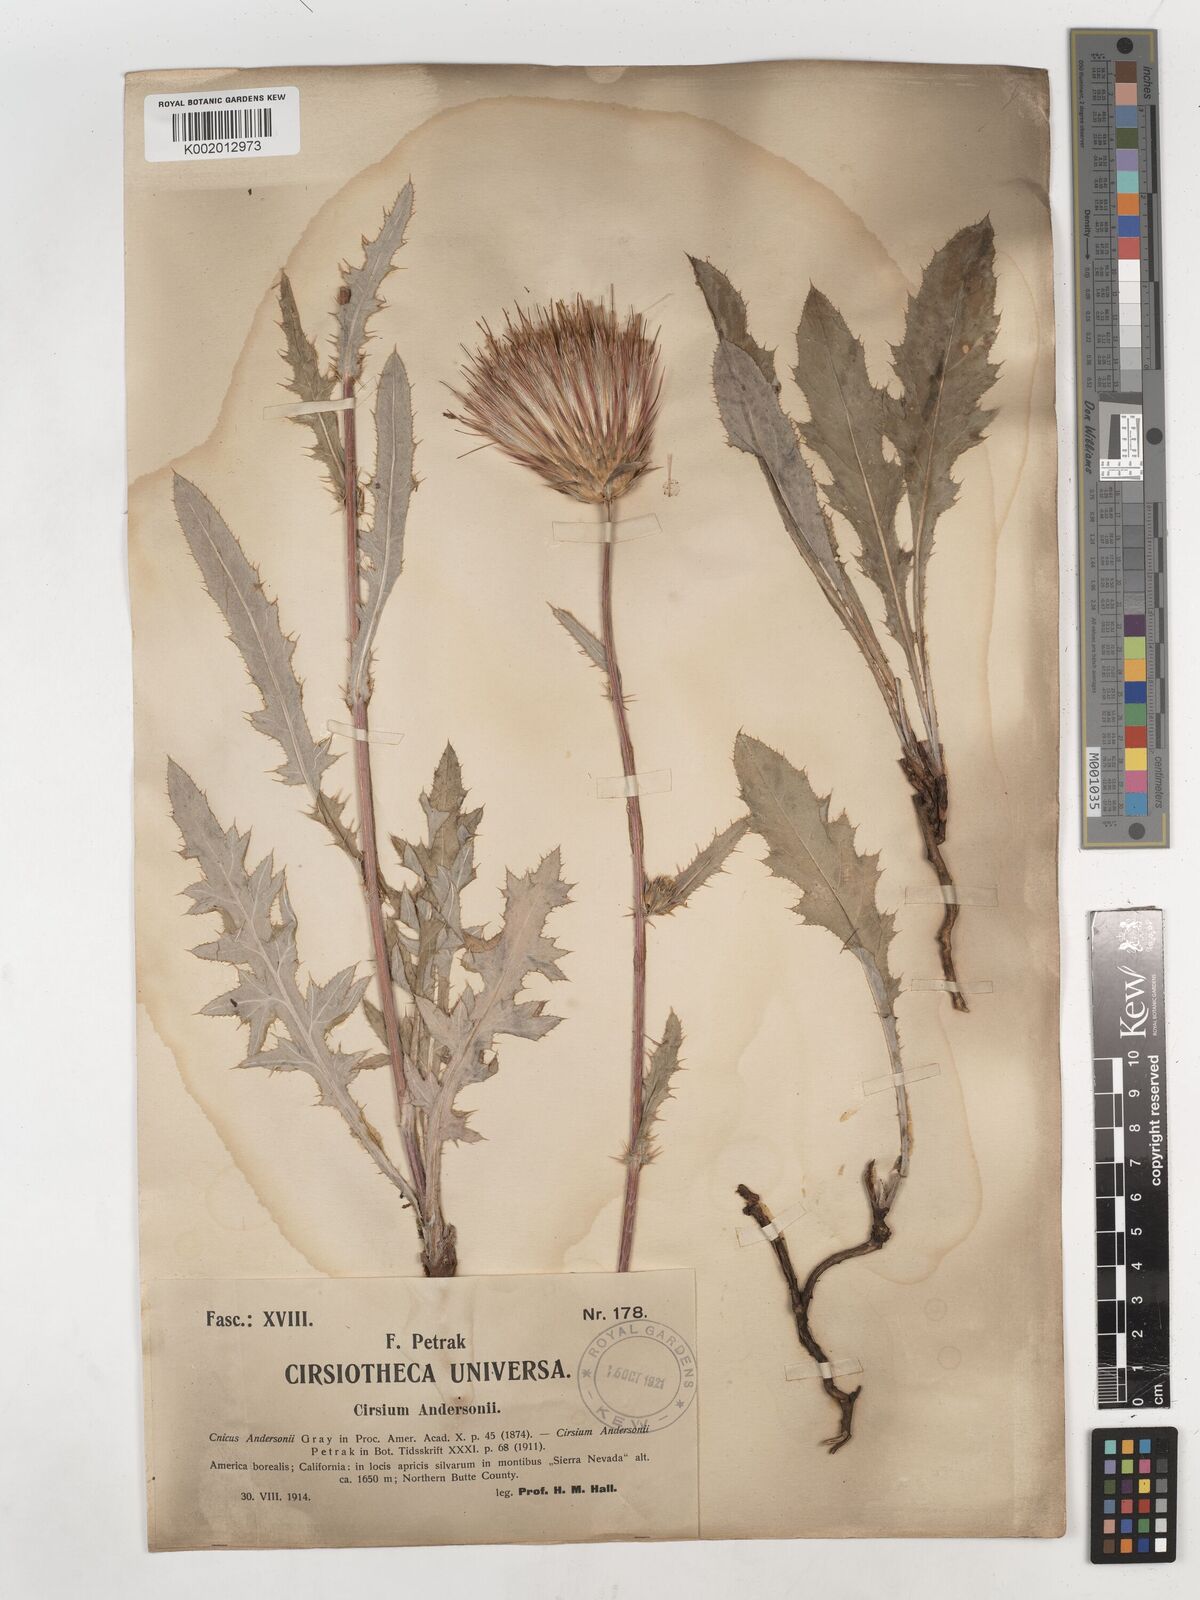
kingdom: Plantae
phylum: Tracheophyta
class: Magnoliopsida
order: Asterales
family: Asteraceae
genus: Cirsium
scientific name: Cirsium
